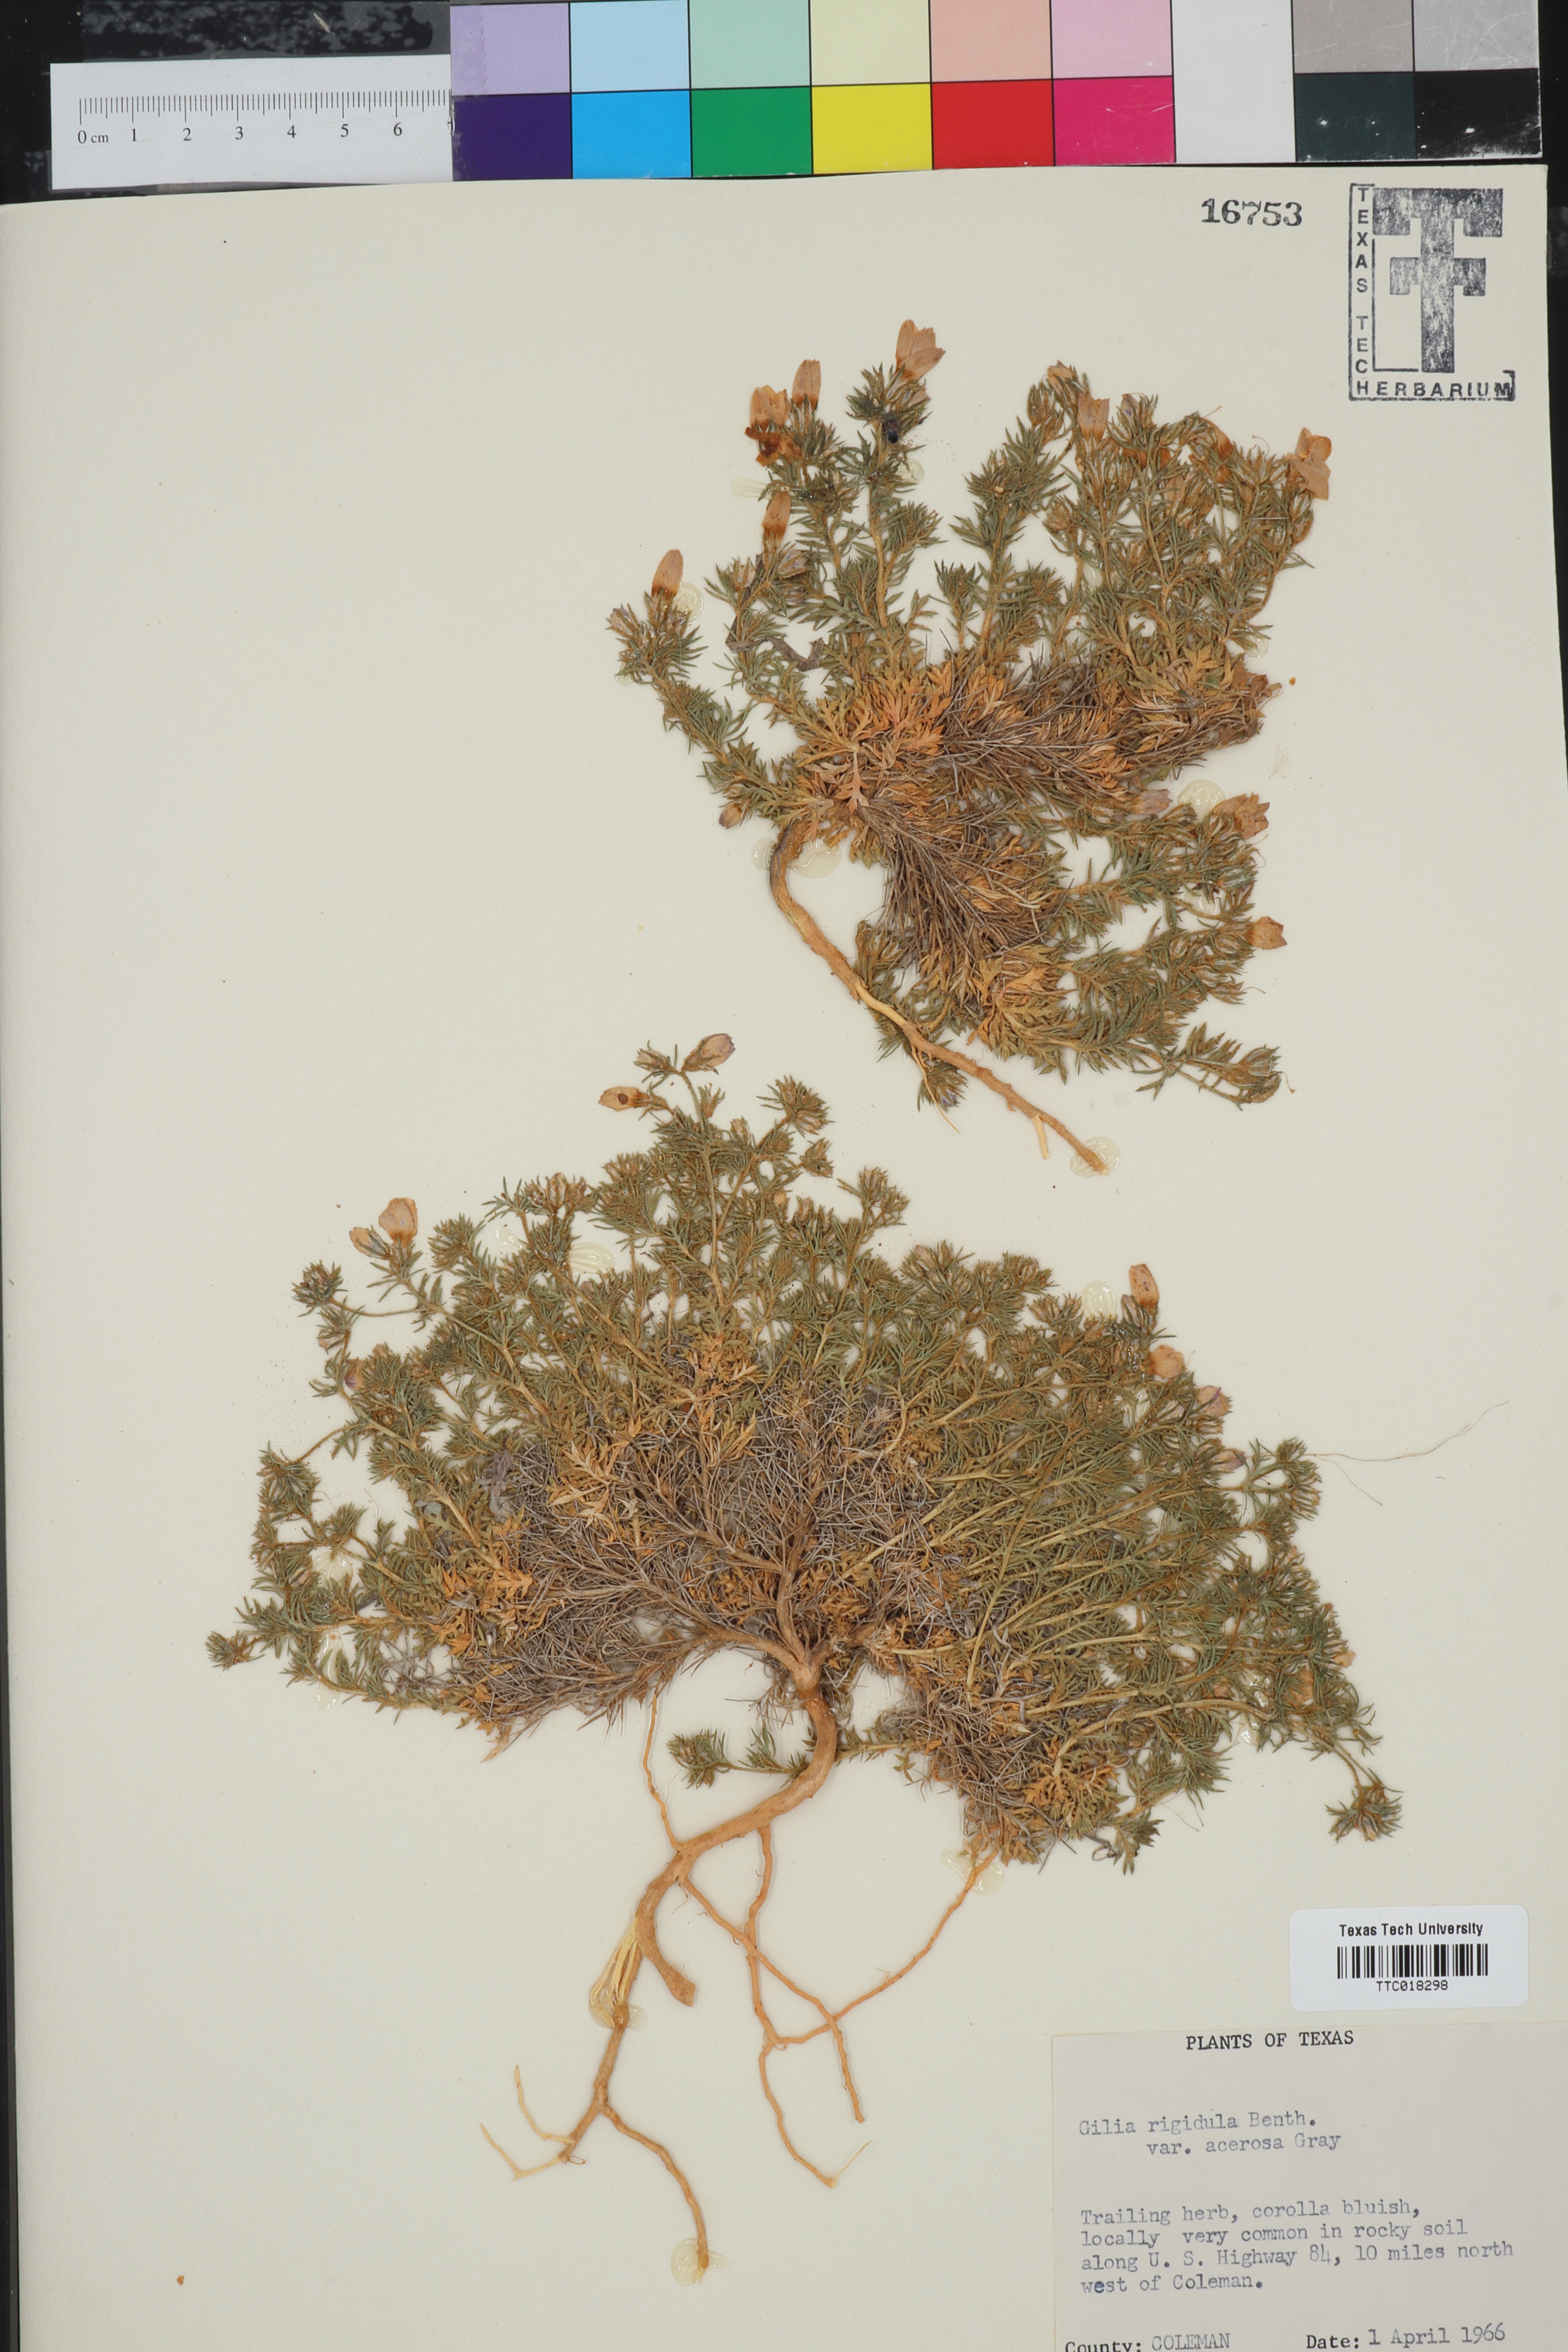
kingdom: Plantae
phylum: Tracheophyta
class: Magnoliopsida
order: Ericales
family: Polemoniaceae
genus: Giliastrum
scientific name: Giliastrum acerosum
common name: Bluebowls
